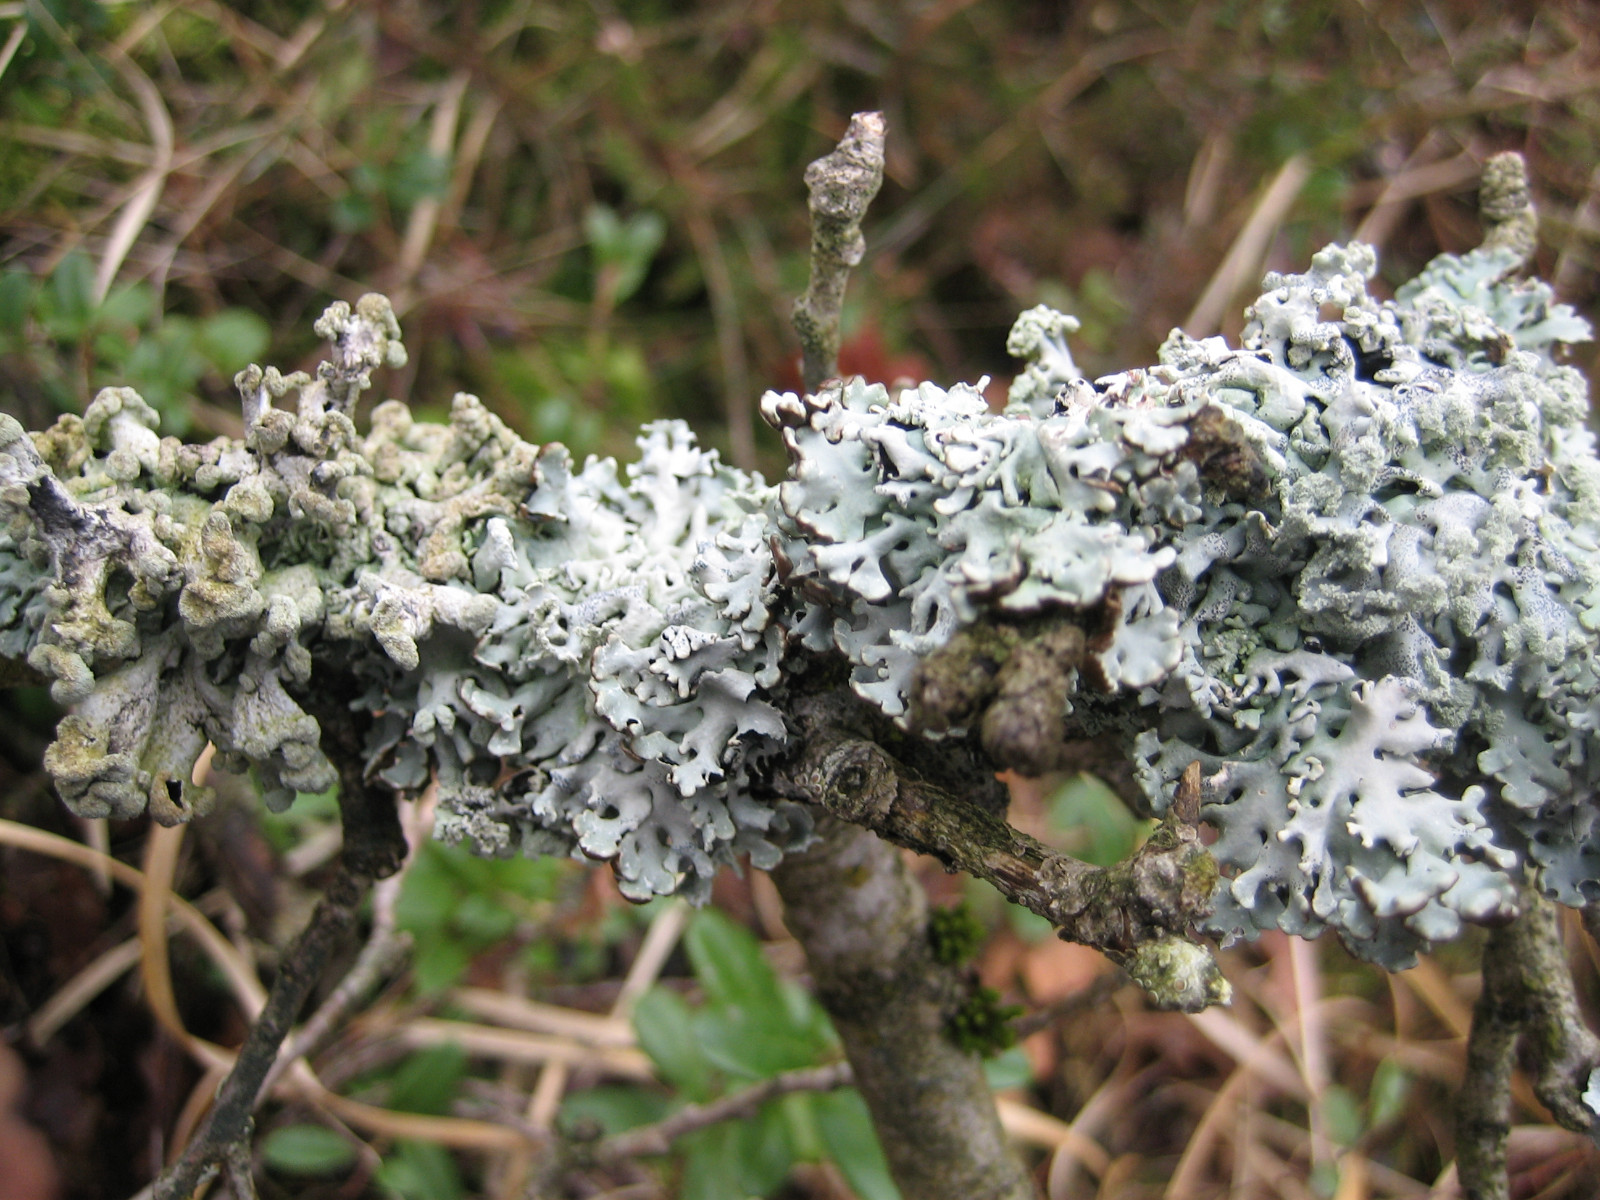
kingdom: Fungi
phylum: Ascomycota
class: Lecanoromycetes
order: Lecanorales
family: Parmeliaceae
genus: Hypogymnia
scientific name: Hypogymnia tubulosa
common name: finger-kvistlav
